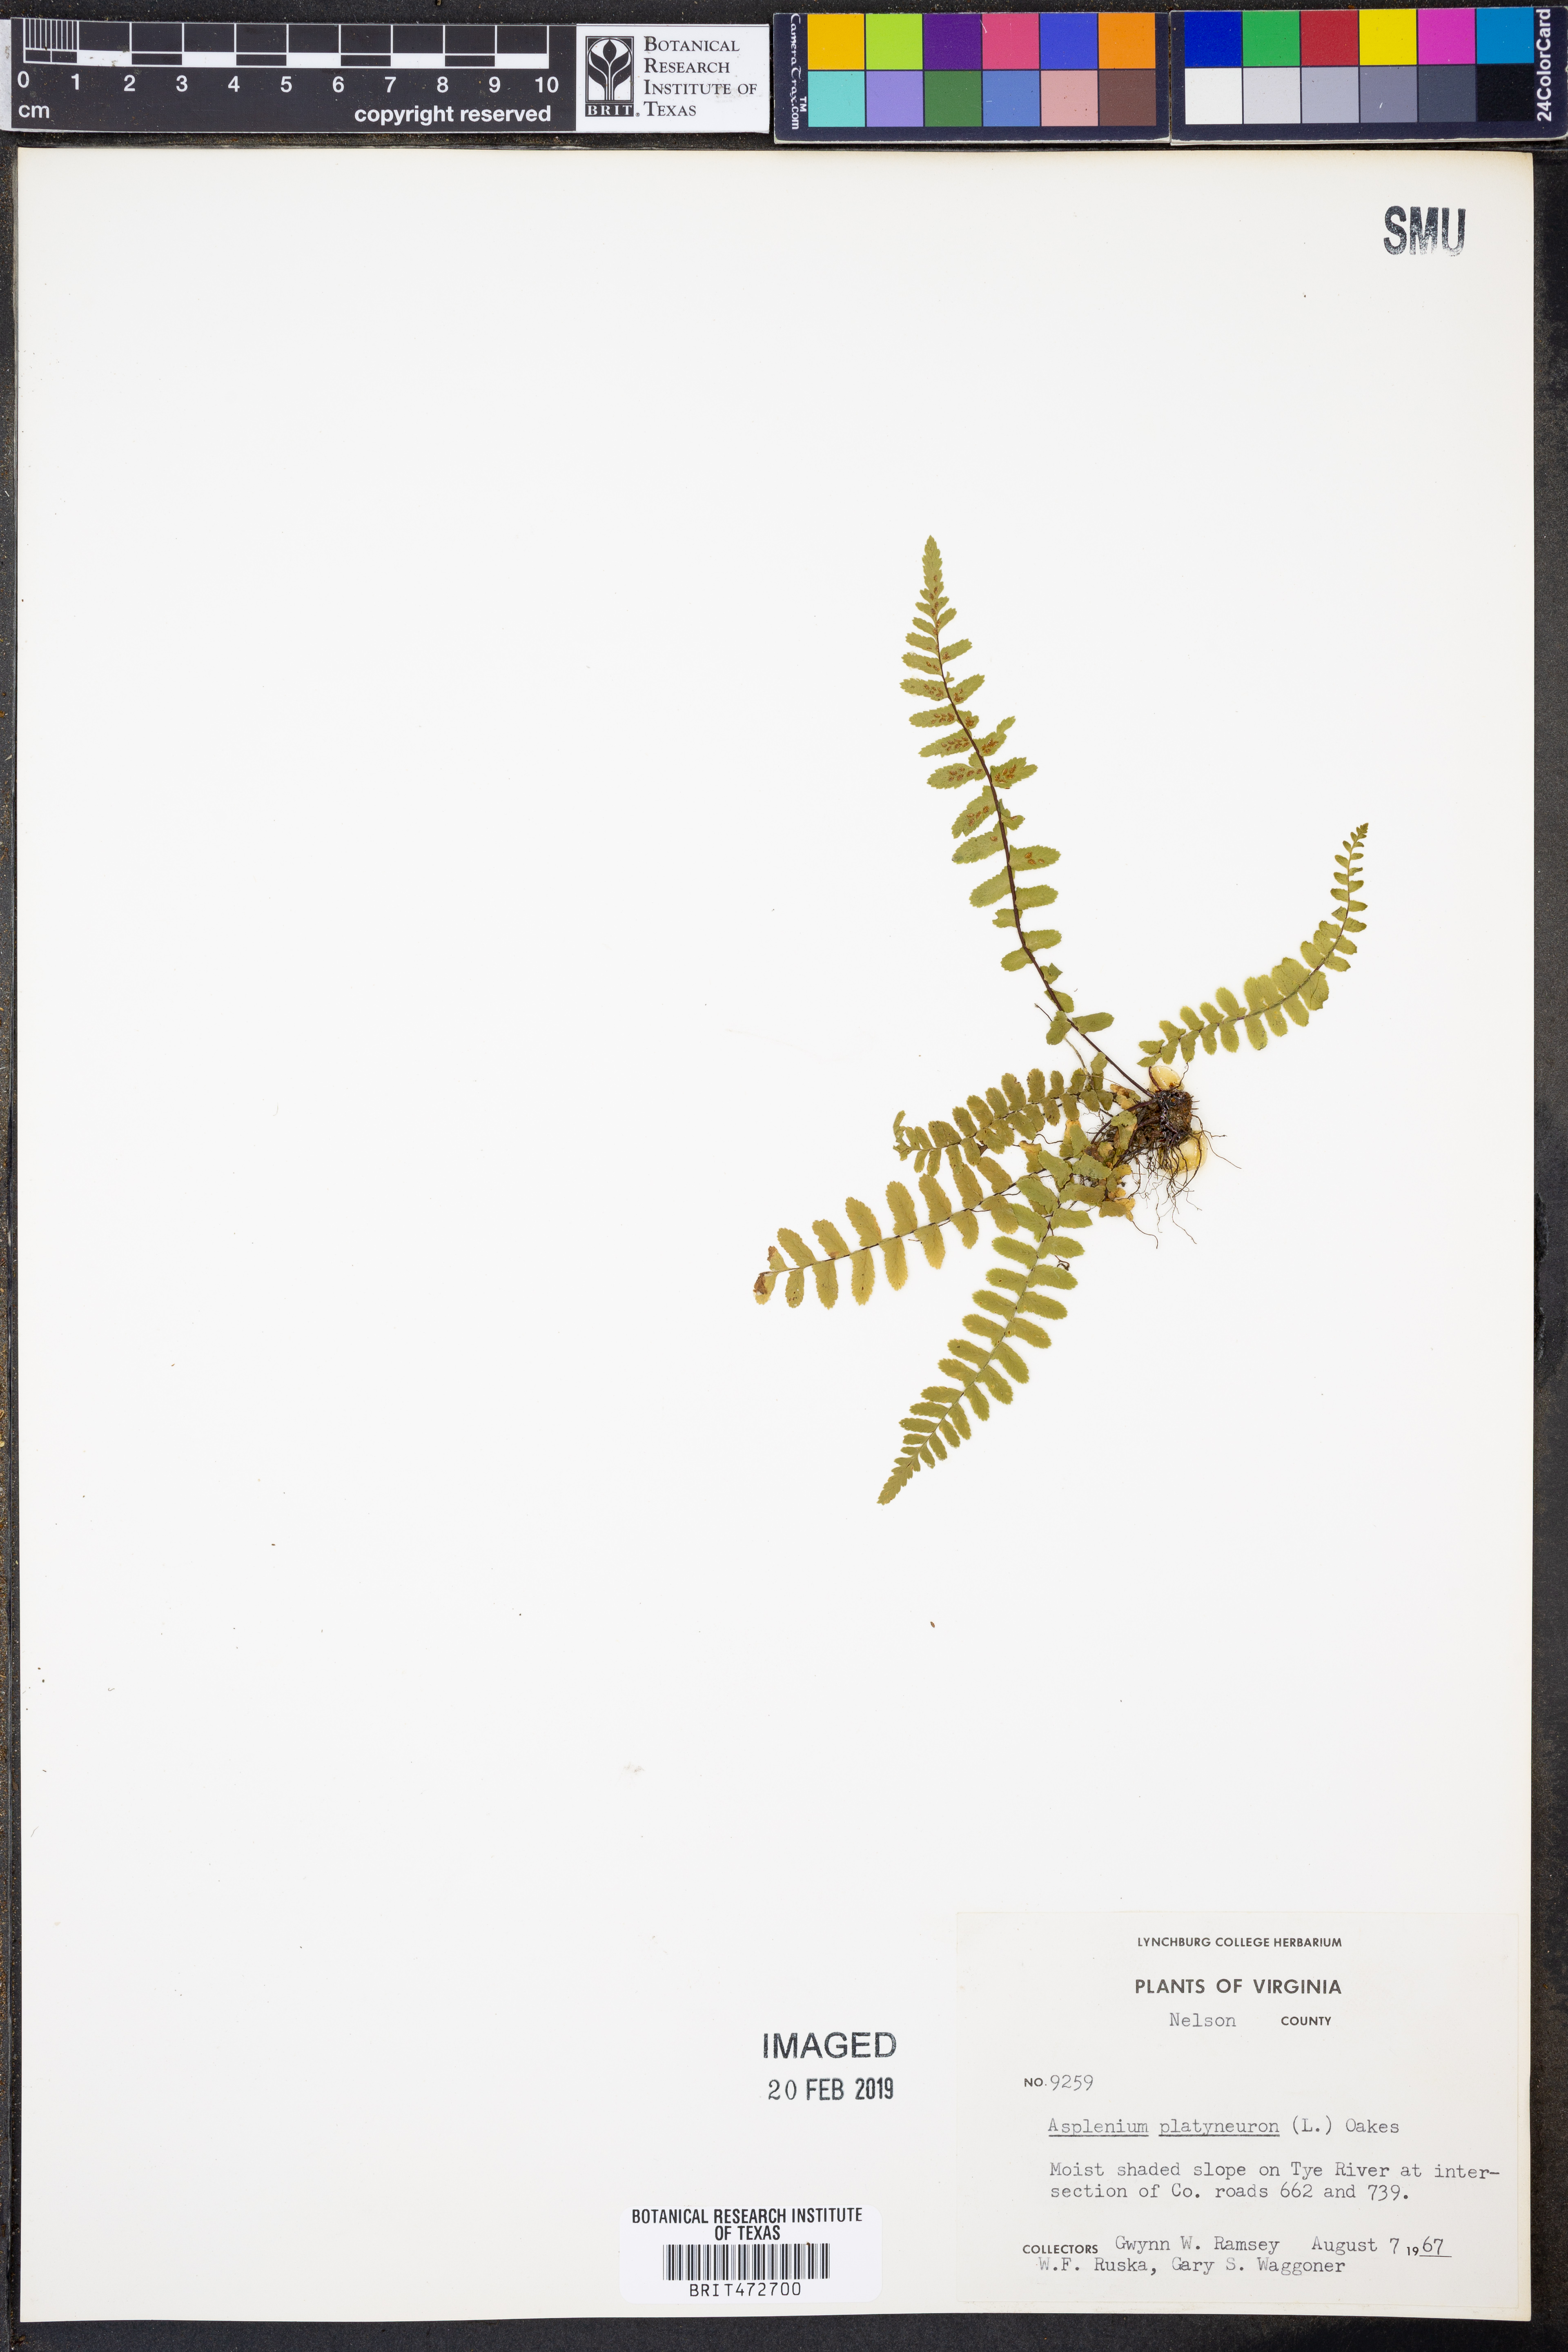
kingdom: Plantae
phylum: Tracheophyta
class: Polypodiopsida
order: Polypodiales
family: Aspleniaceae
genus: Asplenium
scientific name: Asplenium platyneuron
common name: Ebony spleenwort
